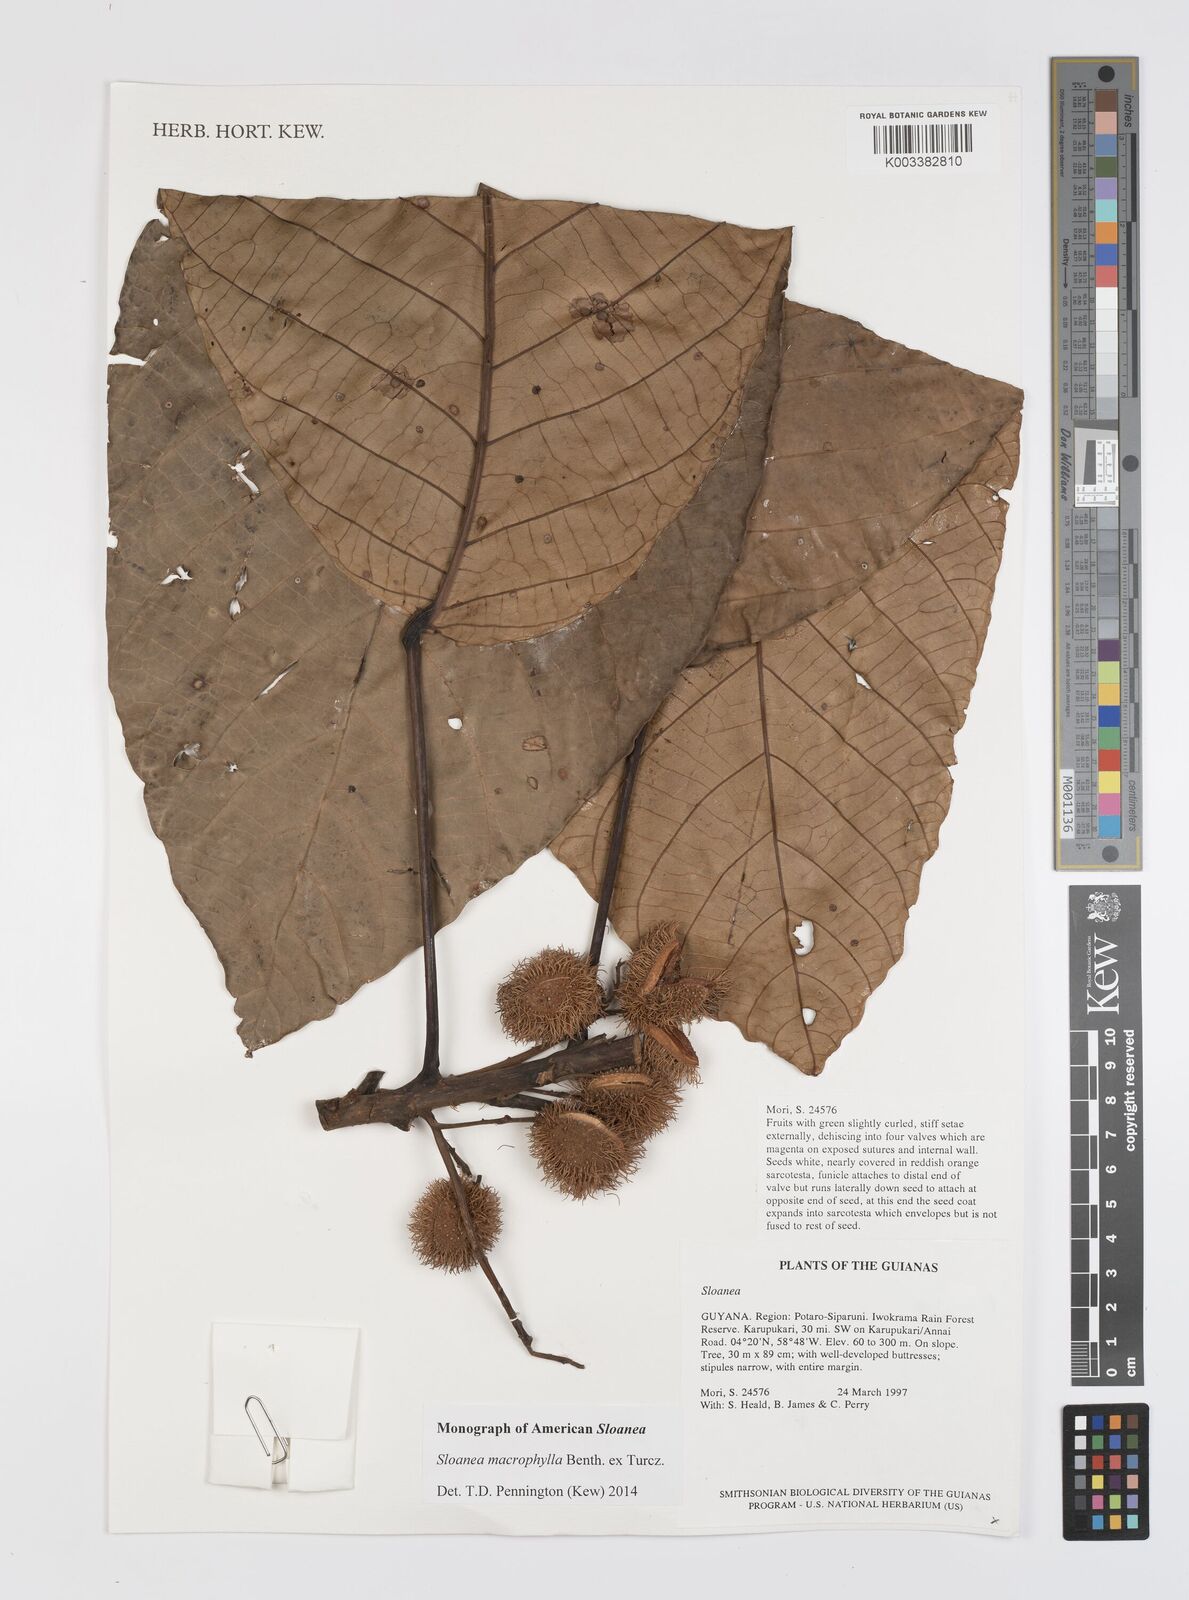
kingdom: Plantae
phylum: Tracheophyta
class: Magnoliopsida
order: Oxalidales
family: Elaeocarpaceae
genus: Sloanea
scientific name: Sloanea macrophylla
